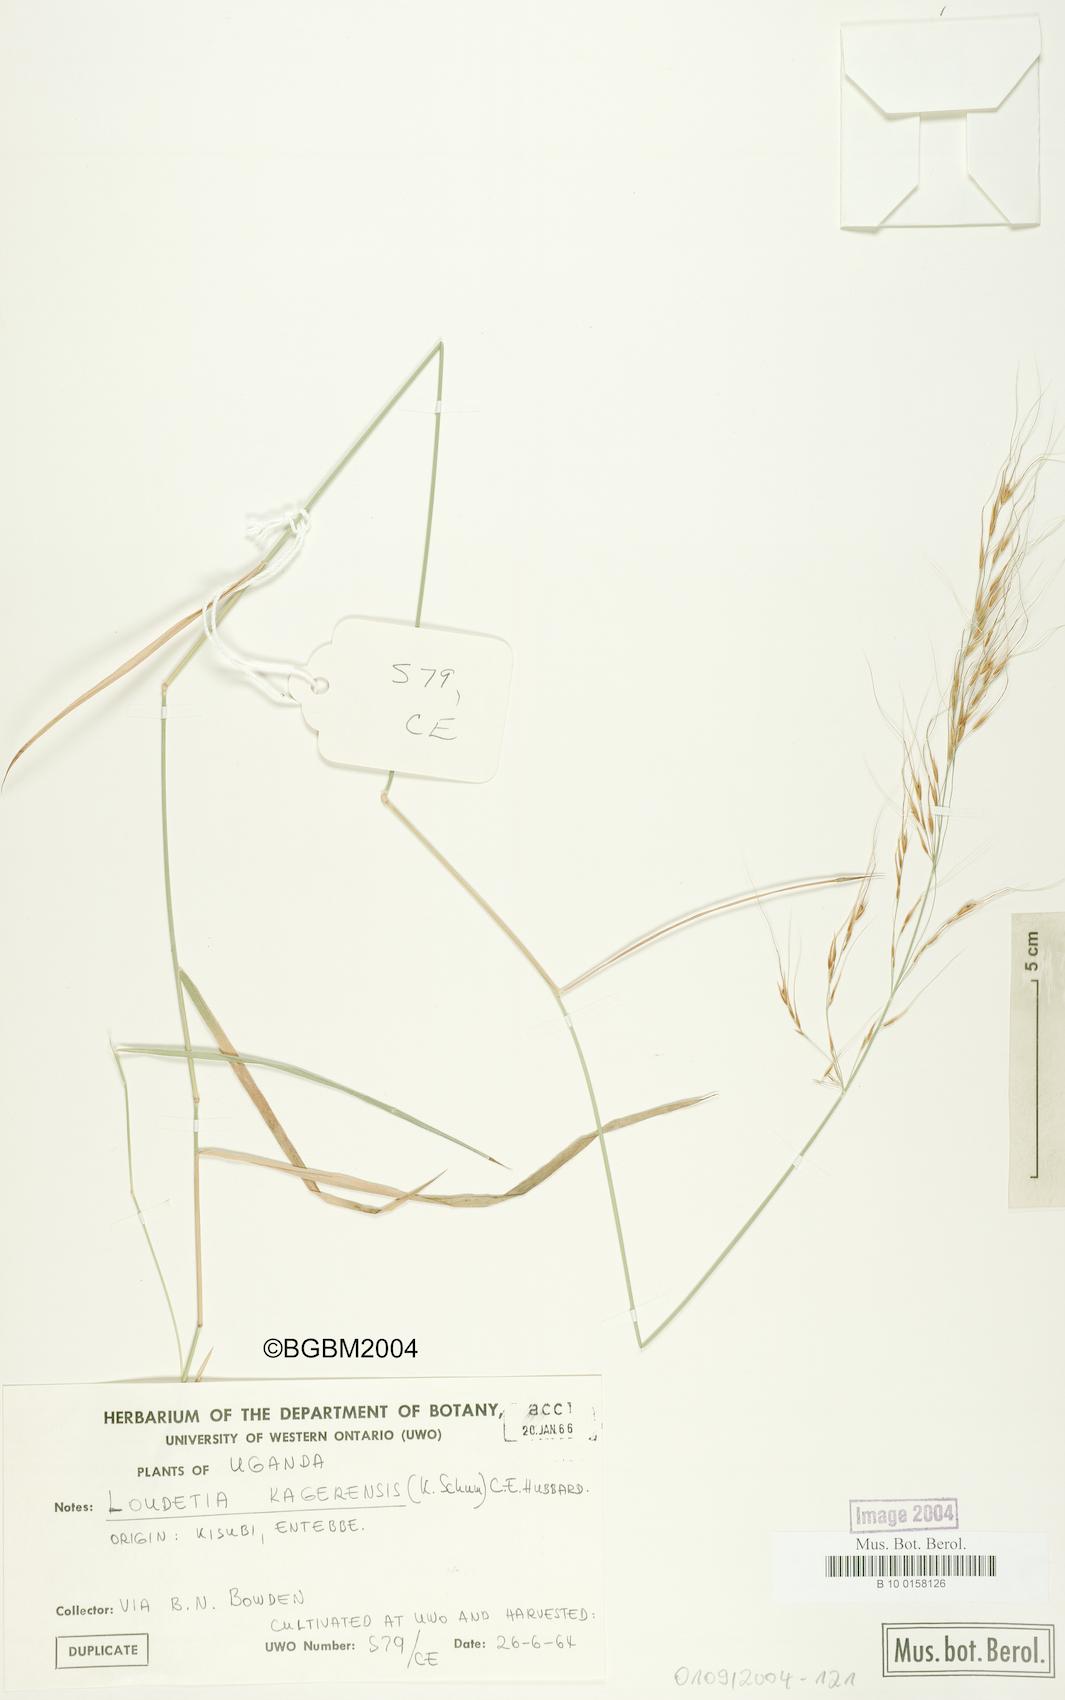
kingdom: Plantae
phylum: Tracheophyta
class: Liliopsida
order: Poales
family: Poaceae
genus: Loudetia
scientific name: Loudetia kagerensis
